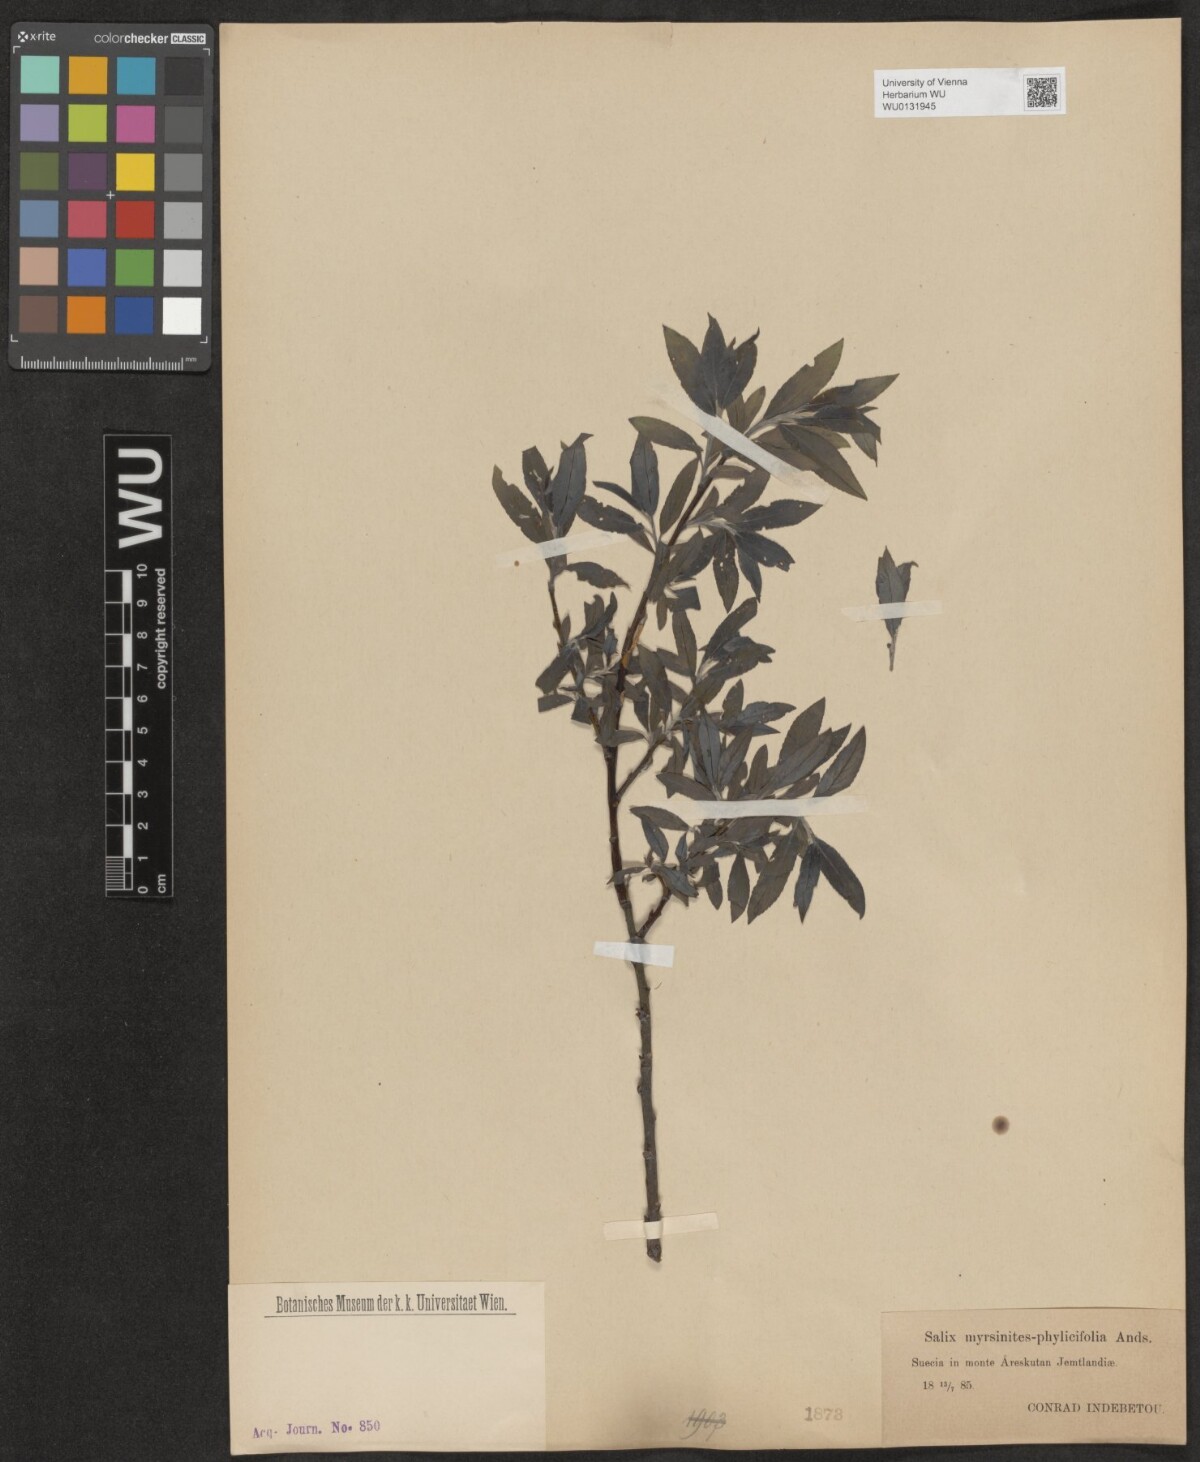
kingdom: Plantae
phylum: Tracheophyta
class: Magnoliopsida
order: Malpighiales
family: Salicaceae
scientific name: Salicaceae
